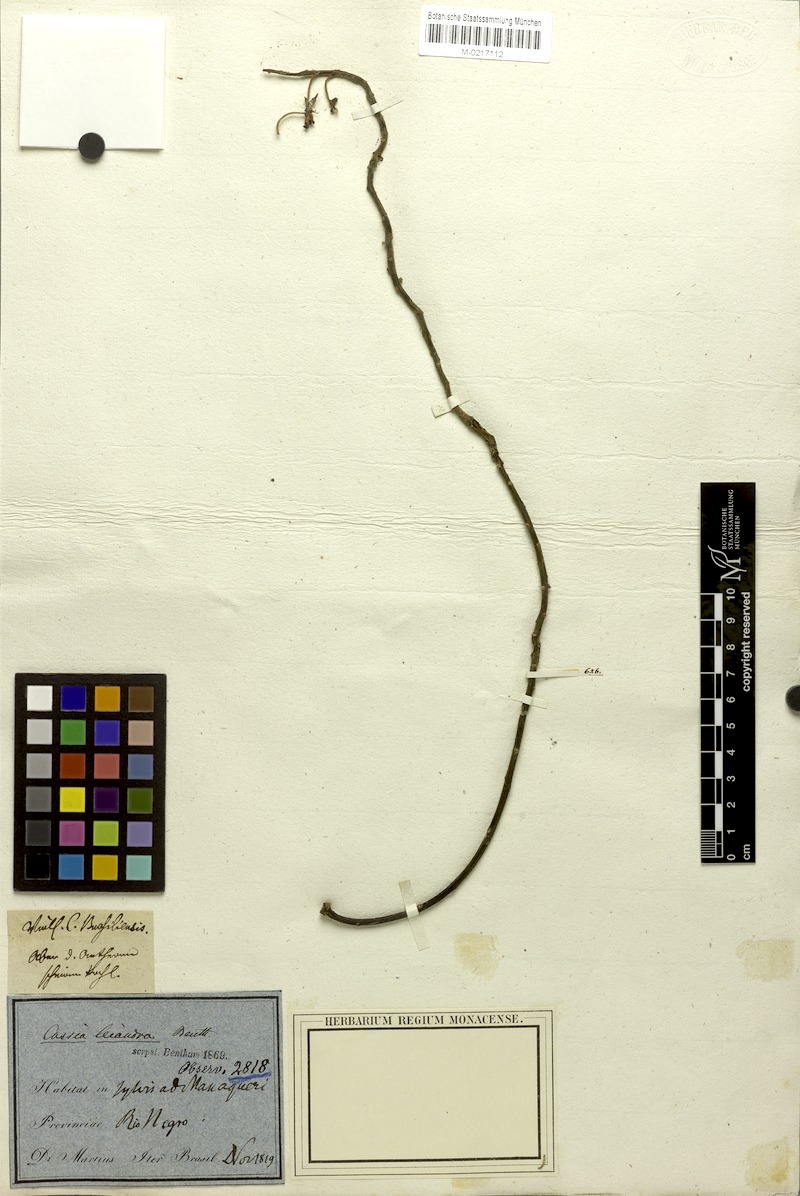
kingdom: Plantae
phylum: Tracheophyta
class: Magnoliopsida
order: Fabales
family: Fabaceae
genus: Cassia
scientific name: Cassia leiandra
